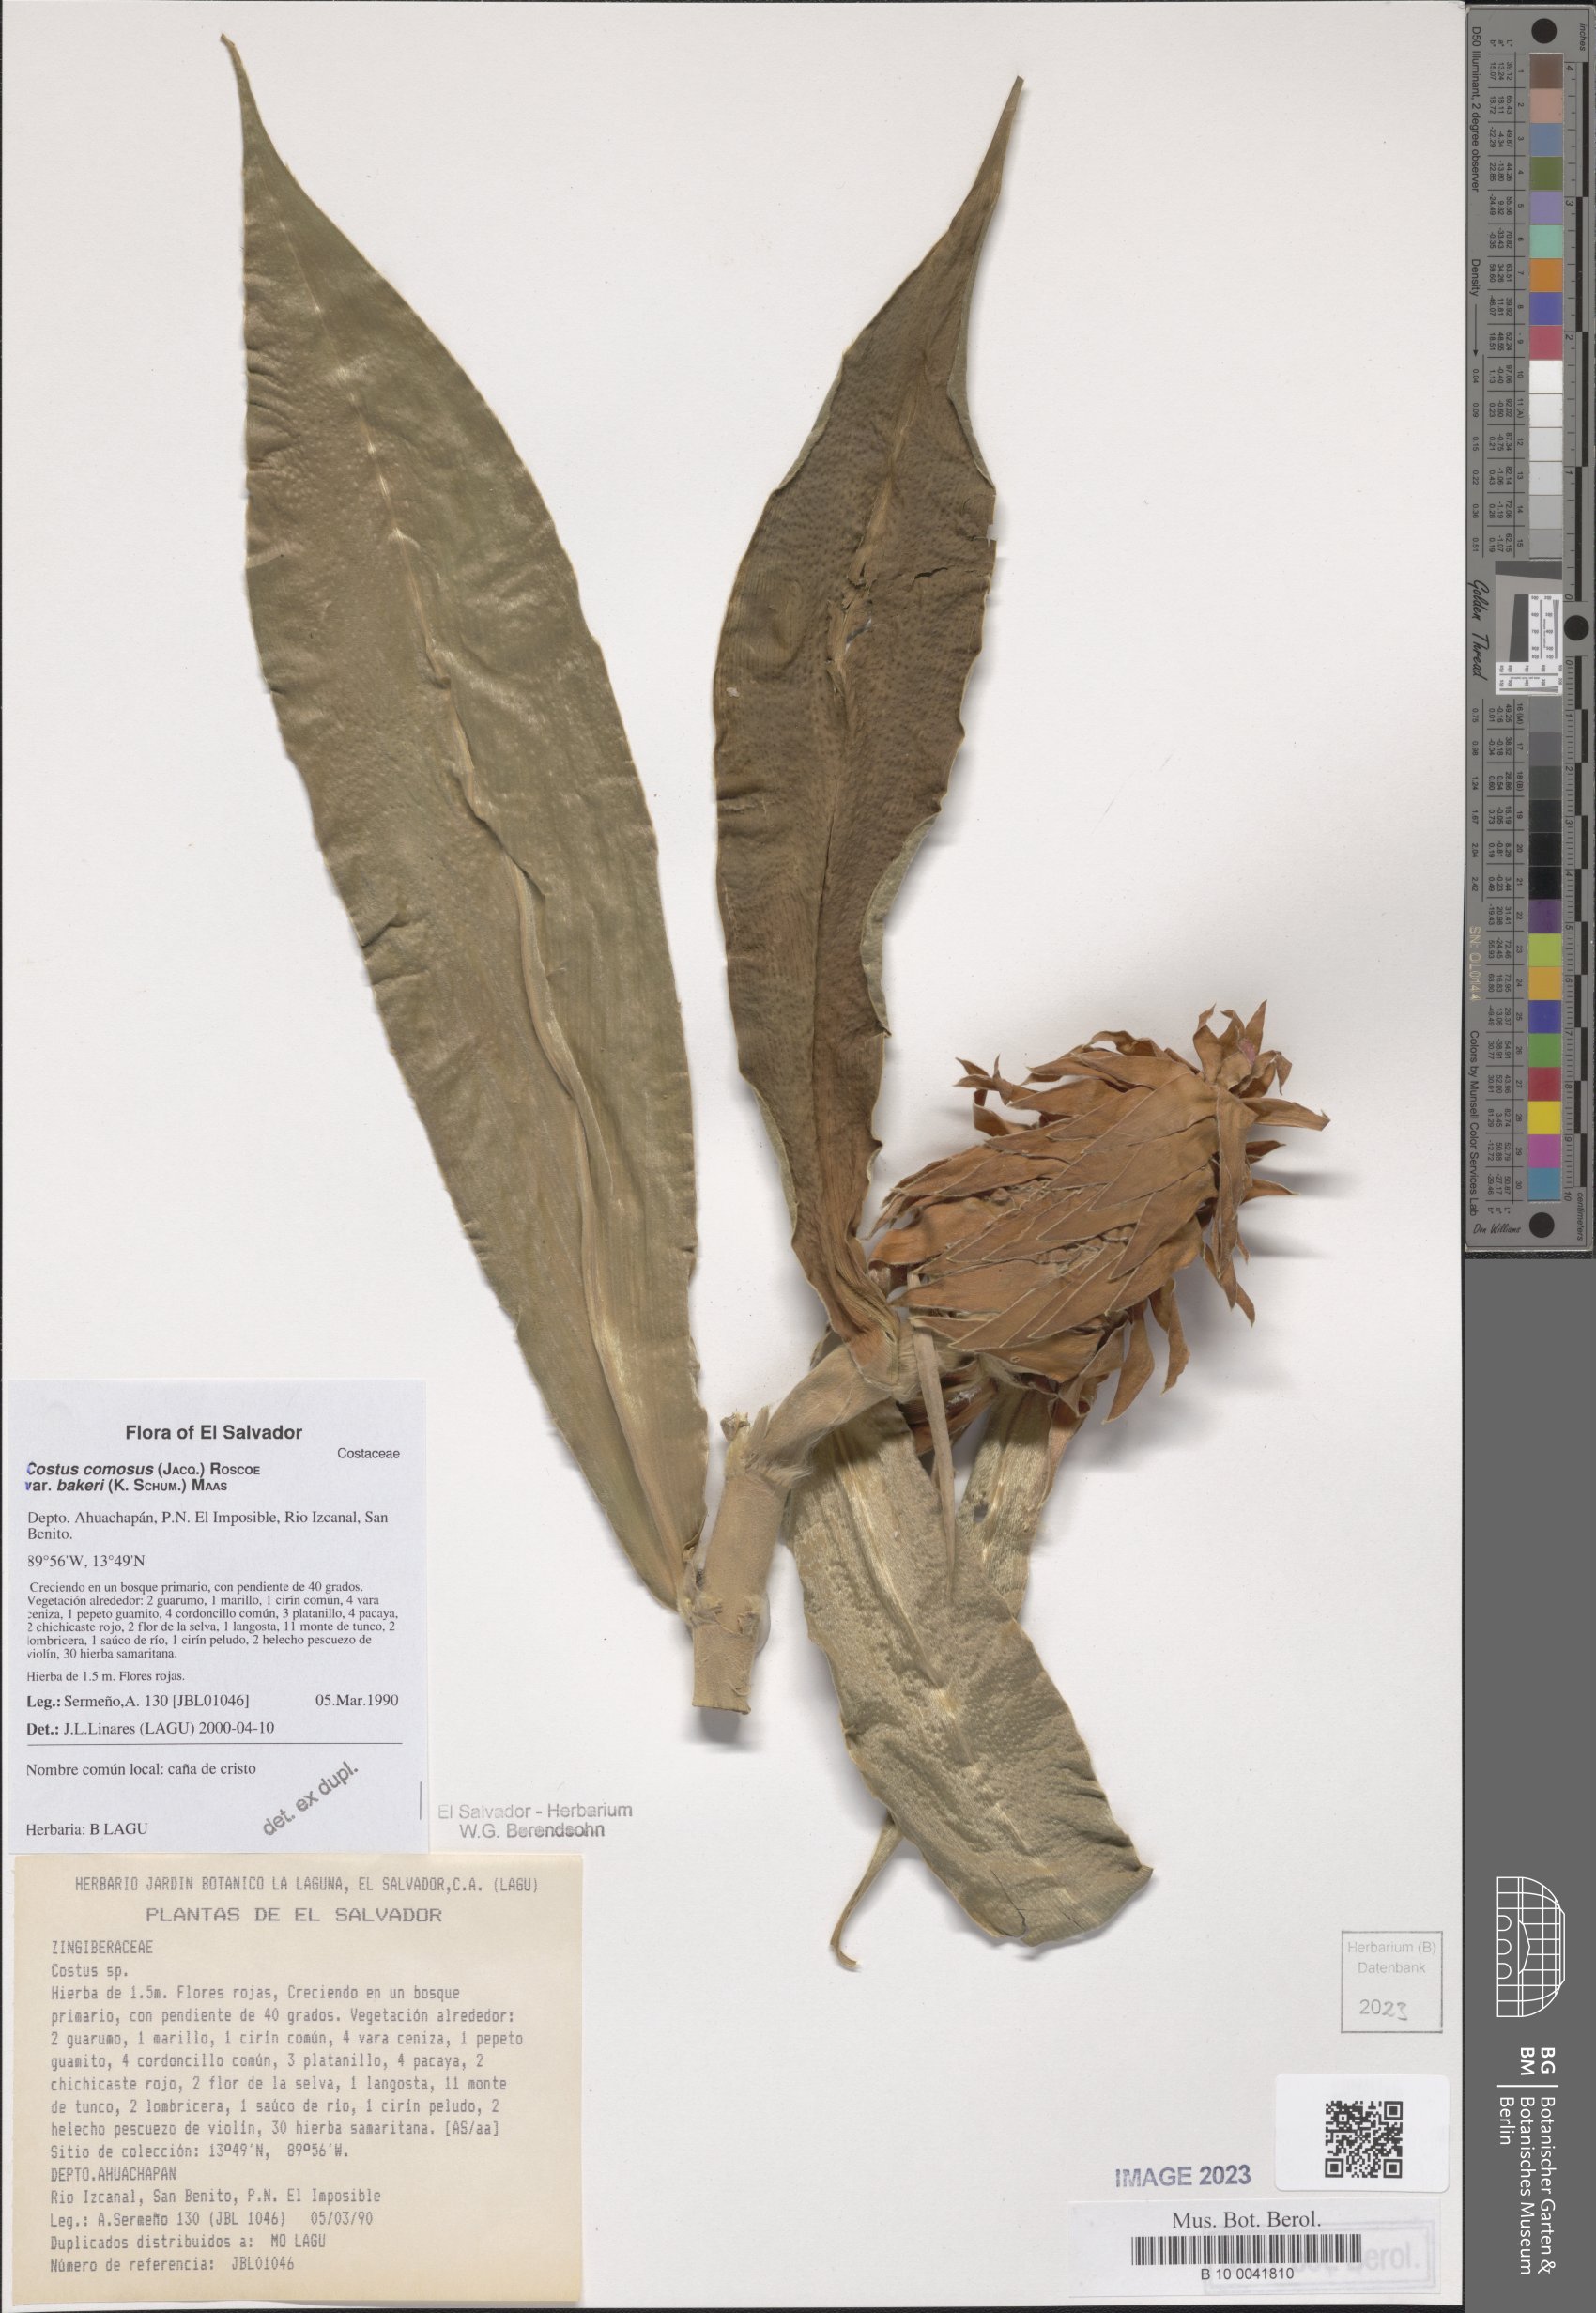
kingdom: Plantae
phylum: Tracheophyta
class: Liliopsida
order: Zingiberales
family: Costaceae
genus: Costus
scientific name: Costus comosus
